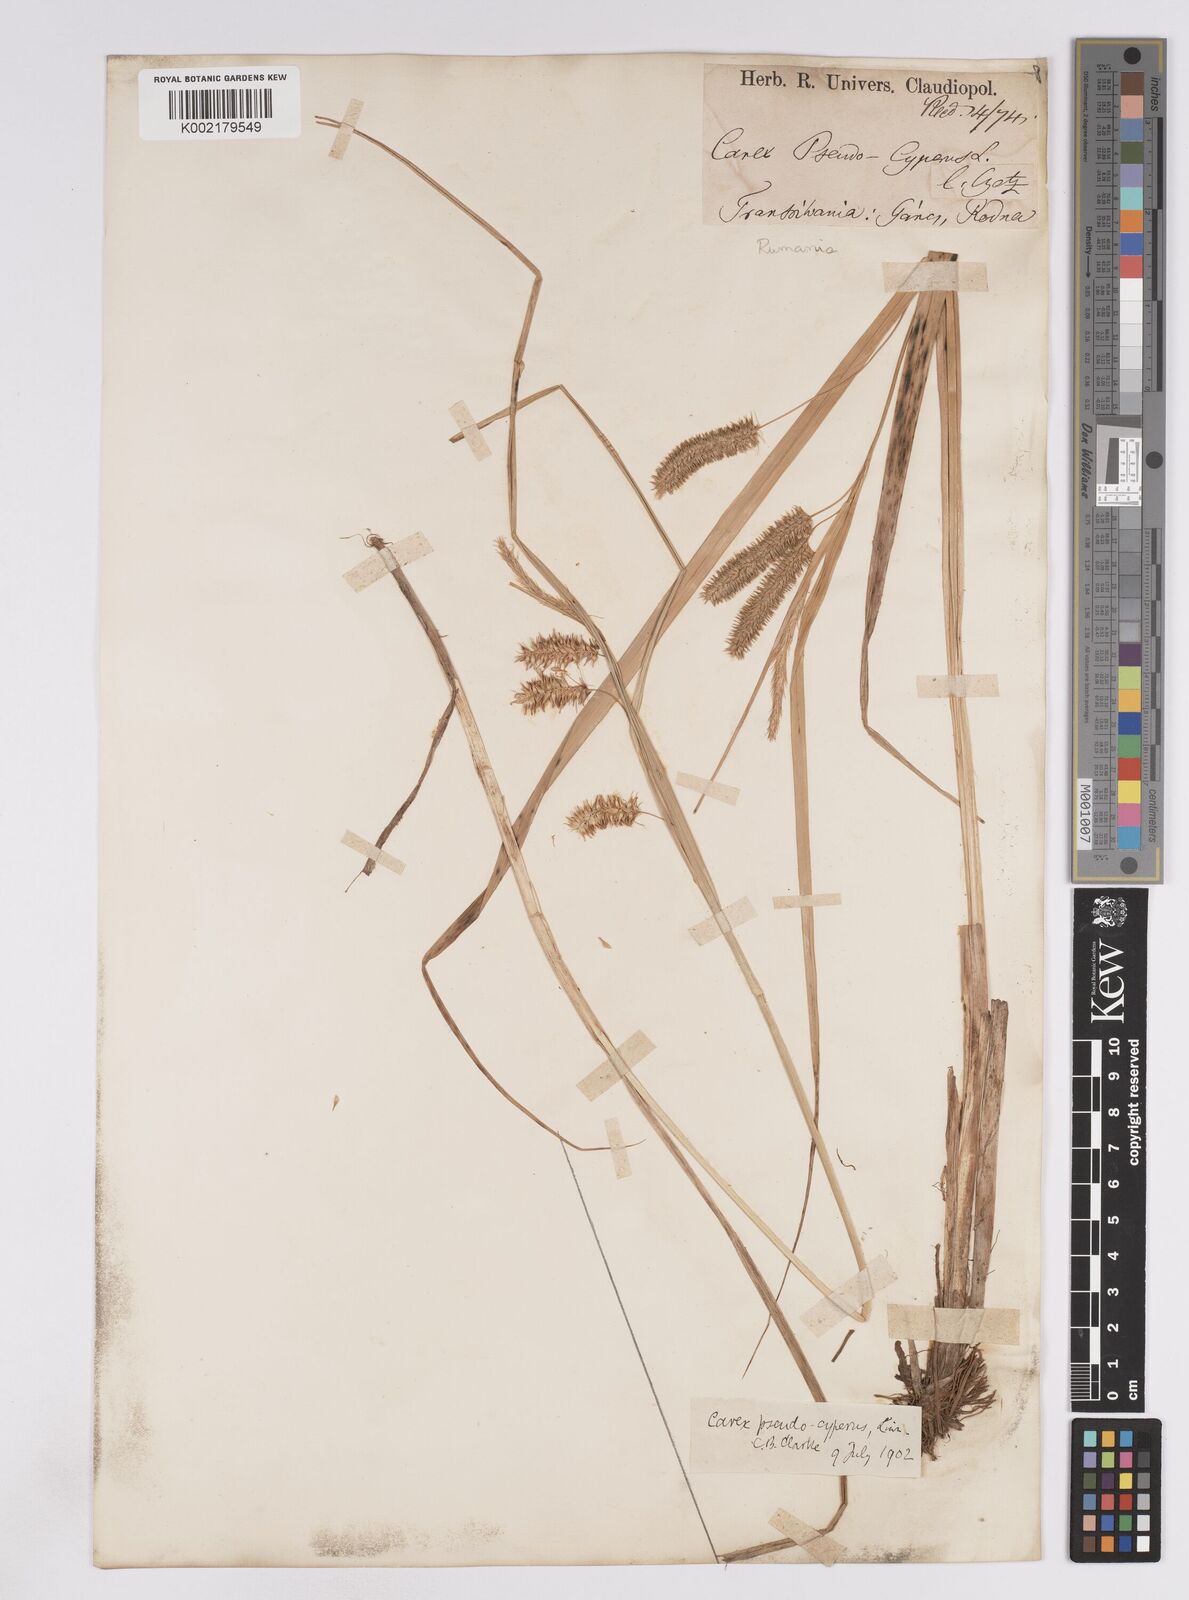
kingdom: Plantae
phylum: Tracheophyta
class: Liliopsida
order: Poales
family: Cyperaceae
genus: Carex
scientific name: Carex pseudocyperus
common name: Cyperus sedge
